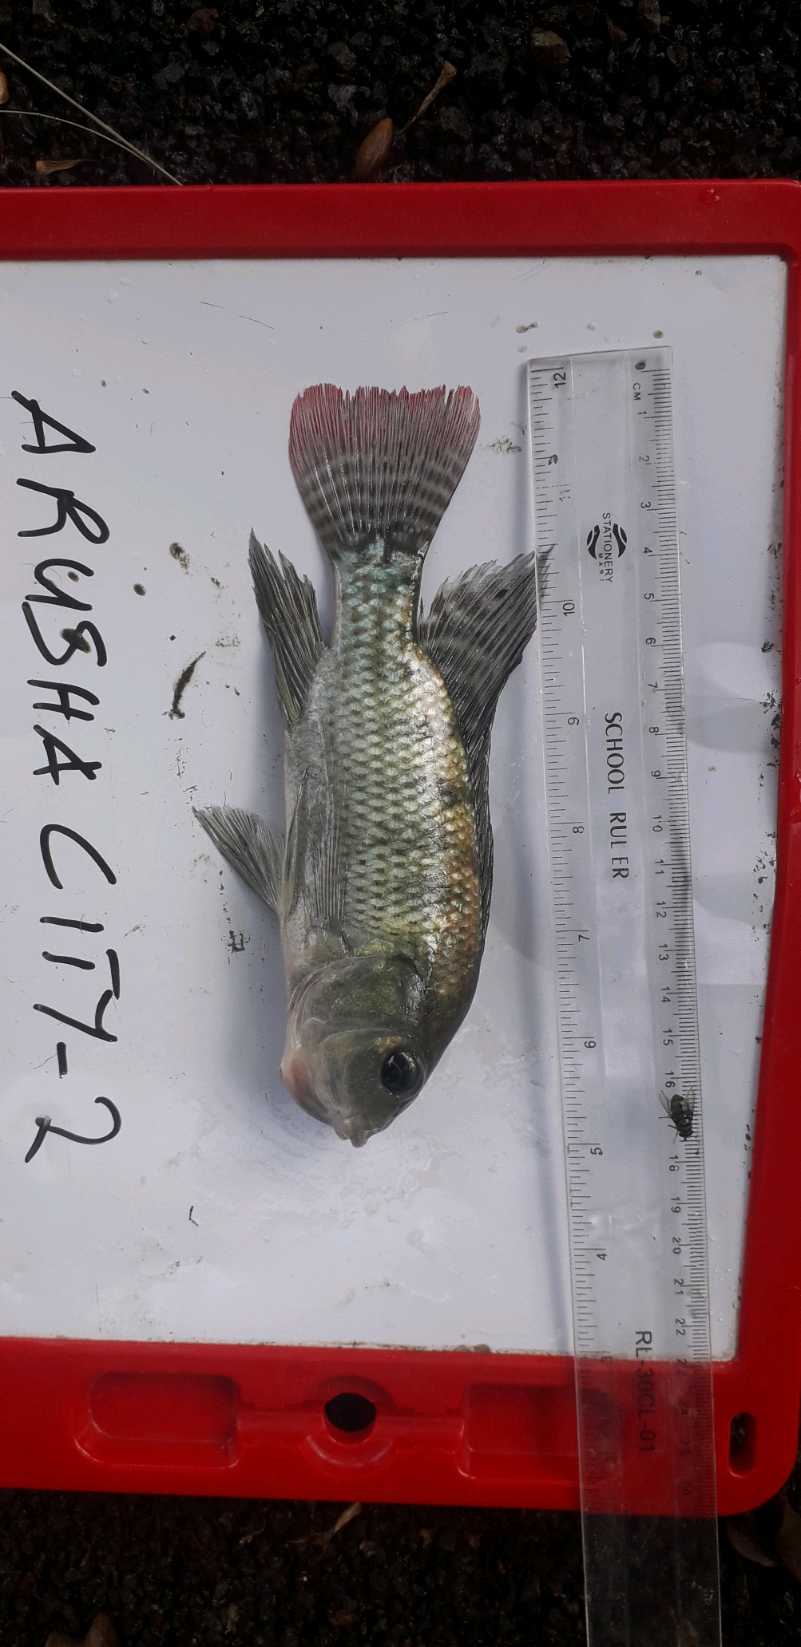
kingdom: Animalia
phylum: Chordata
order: Perciformes
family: Cichlidae
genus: Oreochromis
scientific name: Oreochromis niloticus
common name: Nile tilapia
